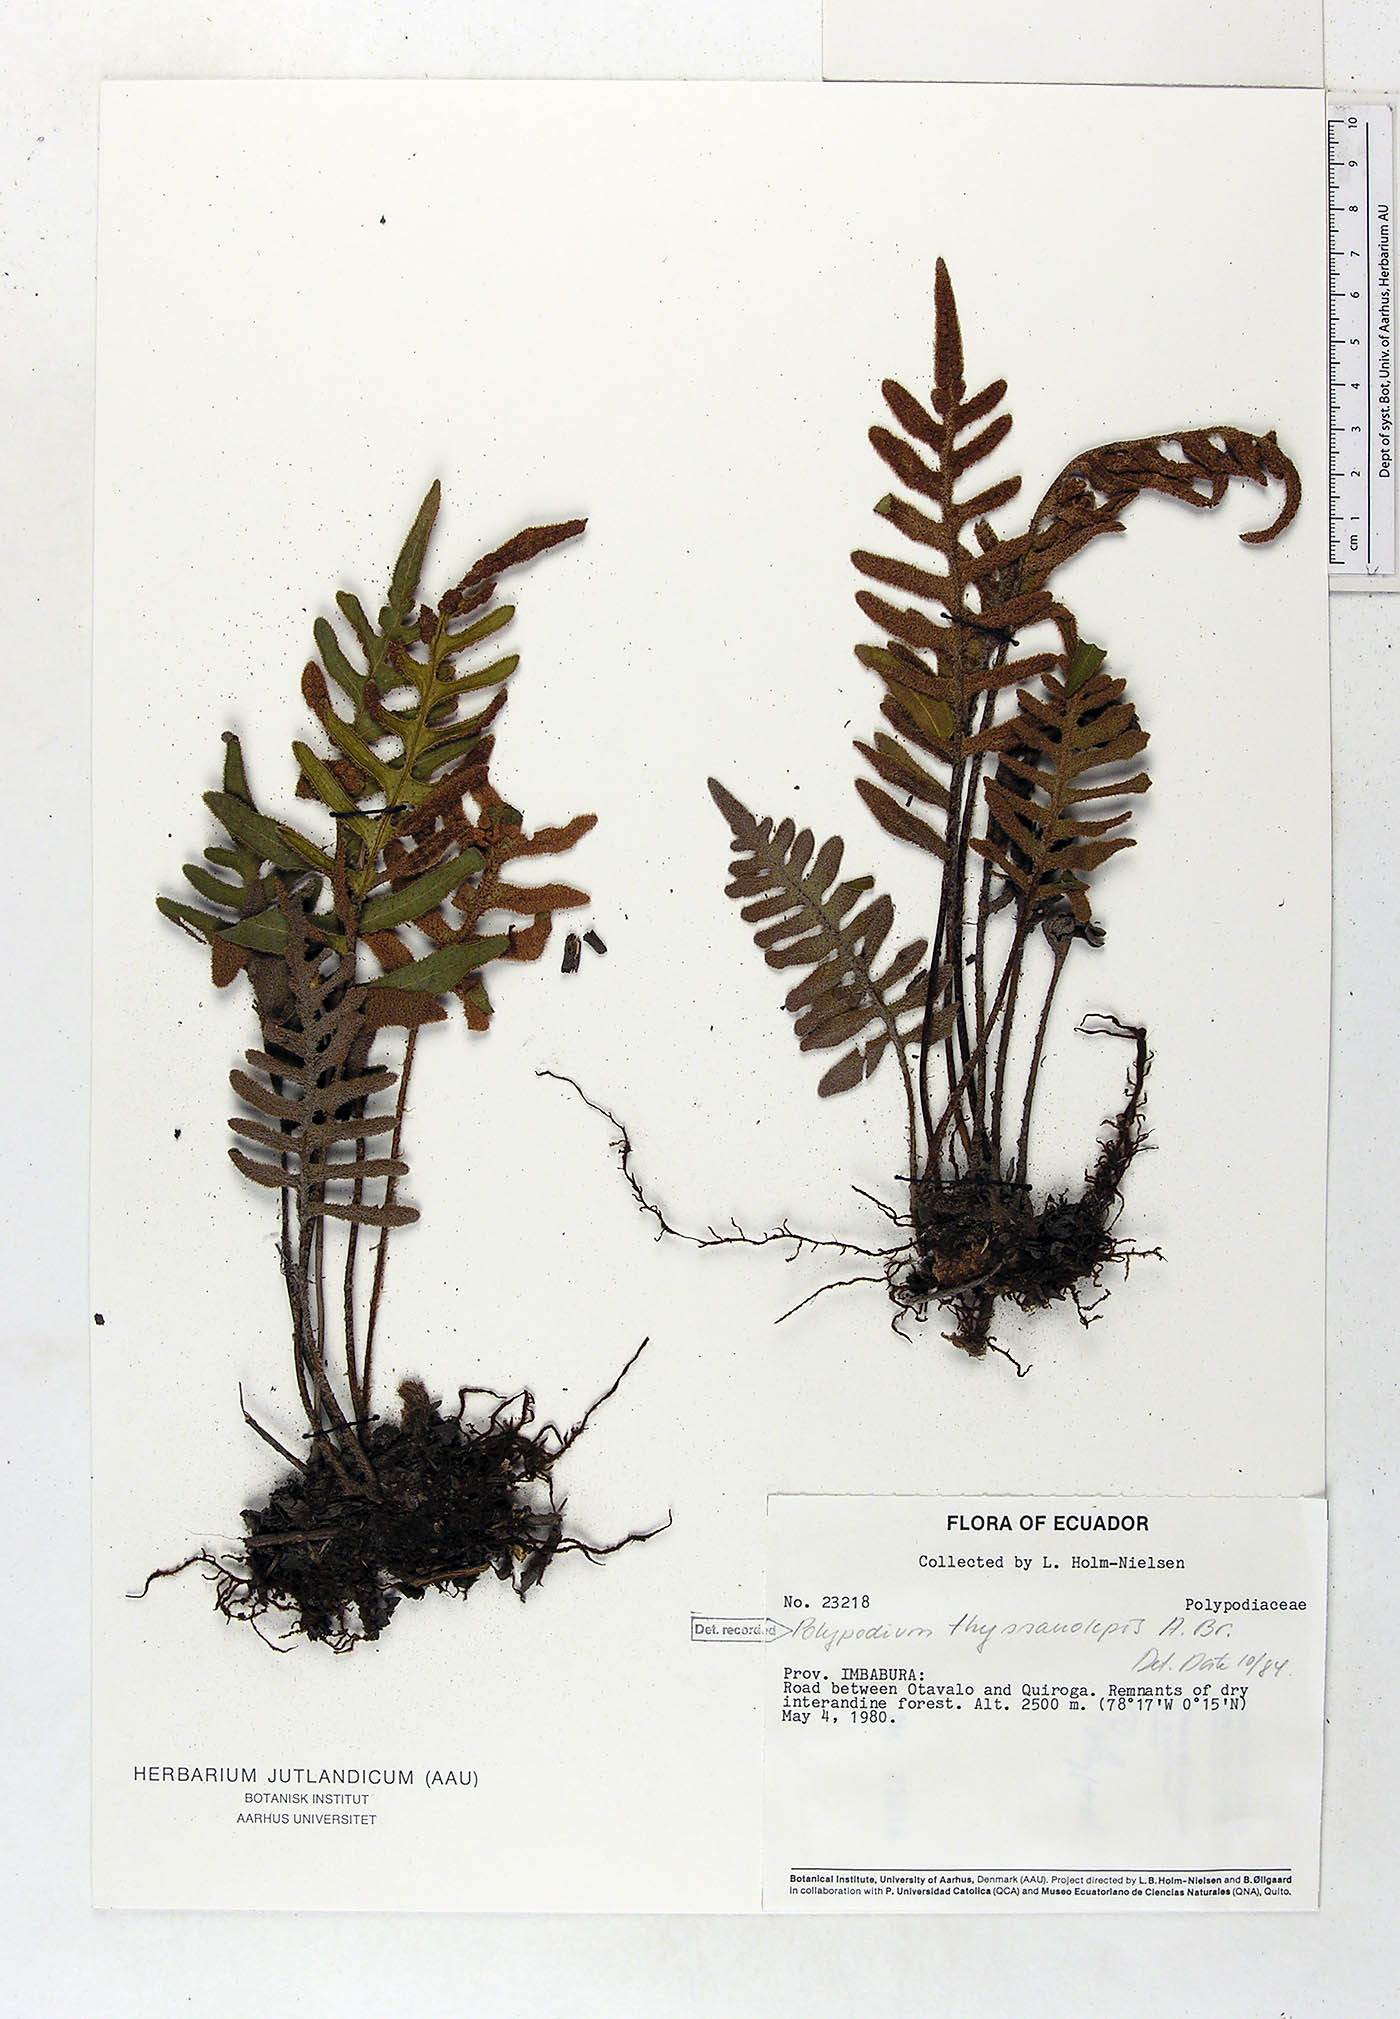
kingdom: Plantae
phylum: Tracheophyta
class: Polypodiopsida
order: Polypodiales
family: Polypodiaceae
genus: Pleopeltis
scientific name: Pleopeltis thyssanolepis
